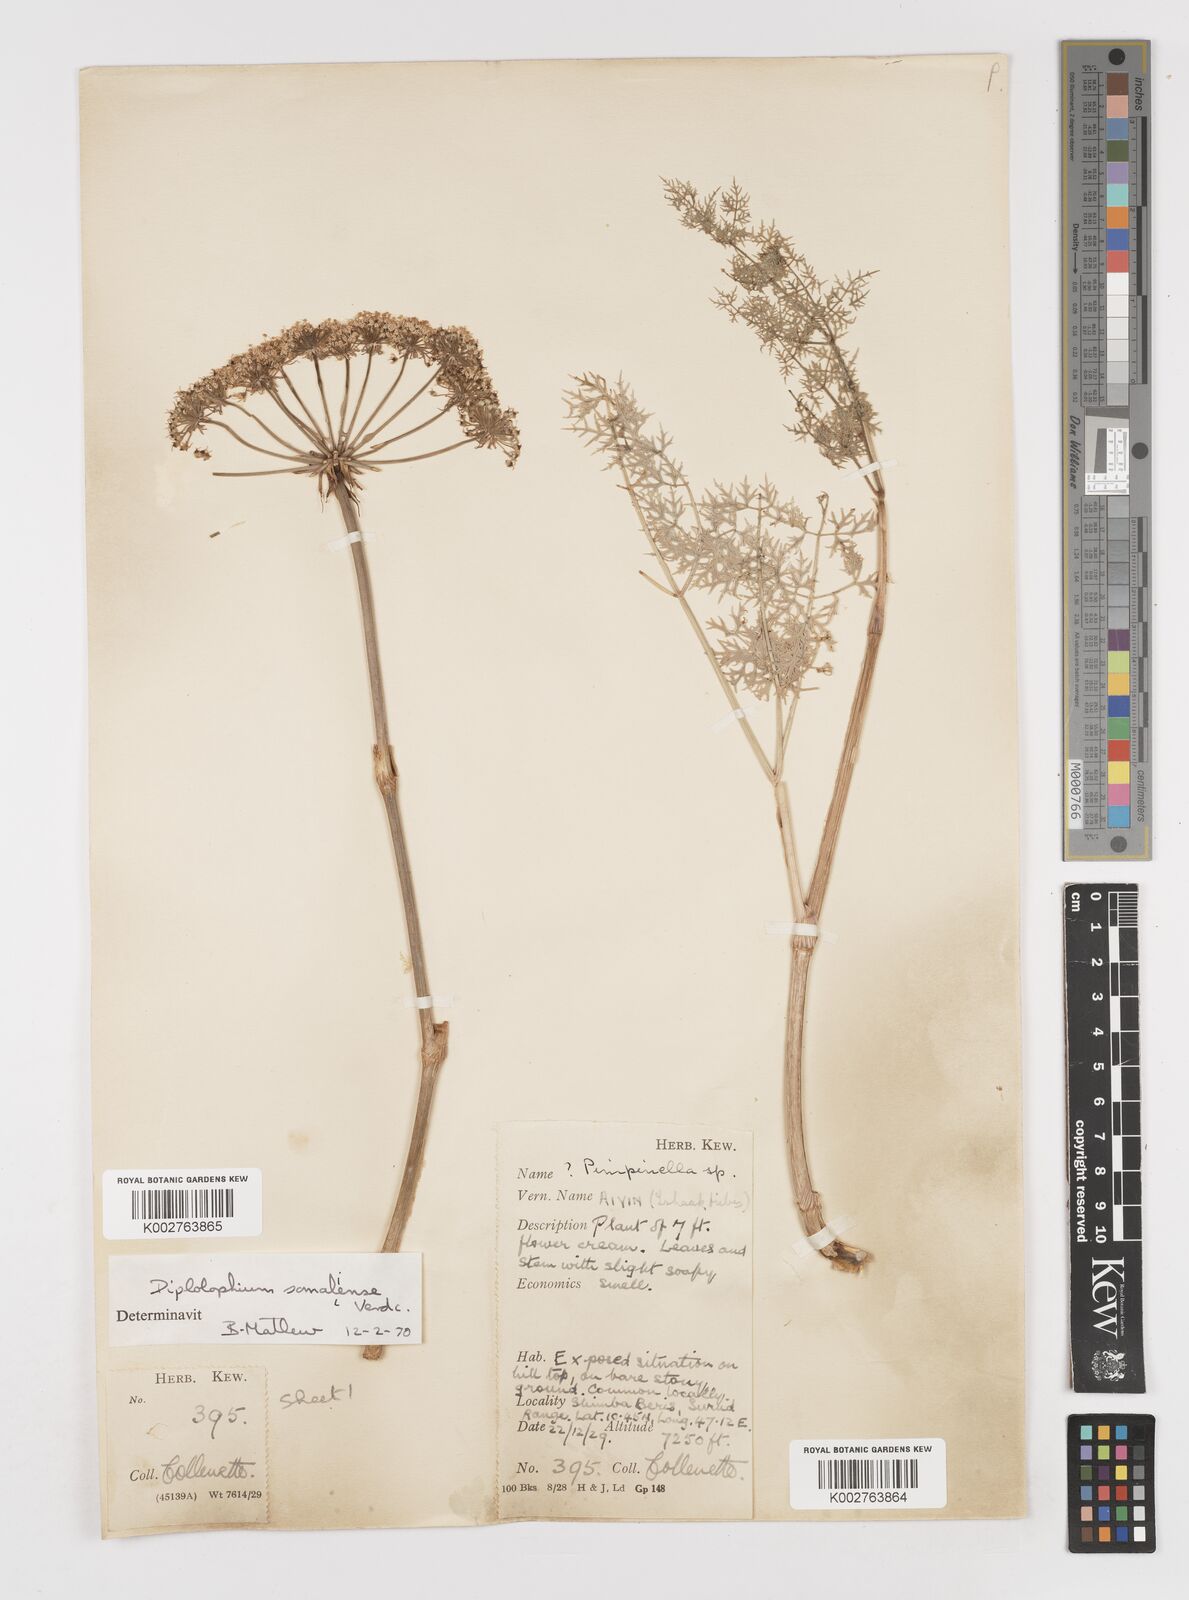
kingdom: Plantae
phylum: Tracheophyta
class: Magnoliopsida
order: Apiales
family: Apiaceae
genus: Diplolophium
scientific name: Diplolophium somaliense
